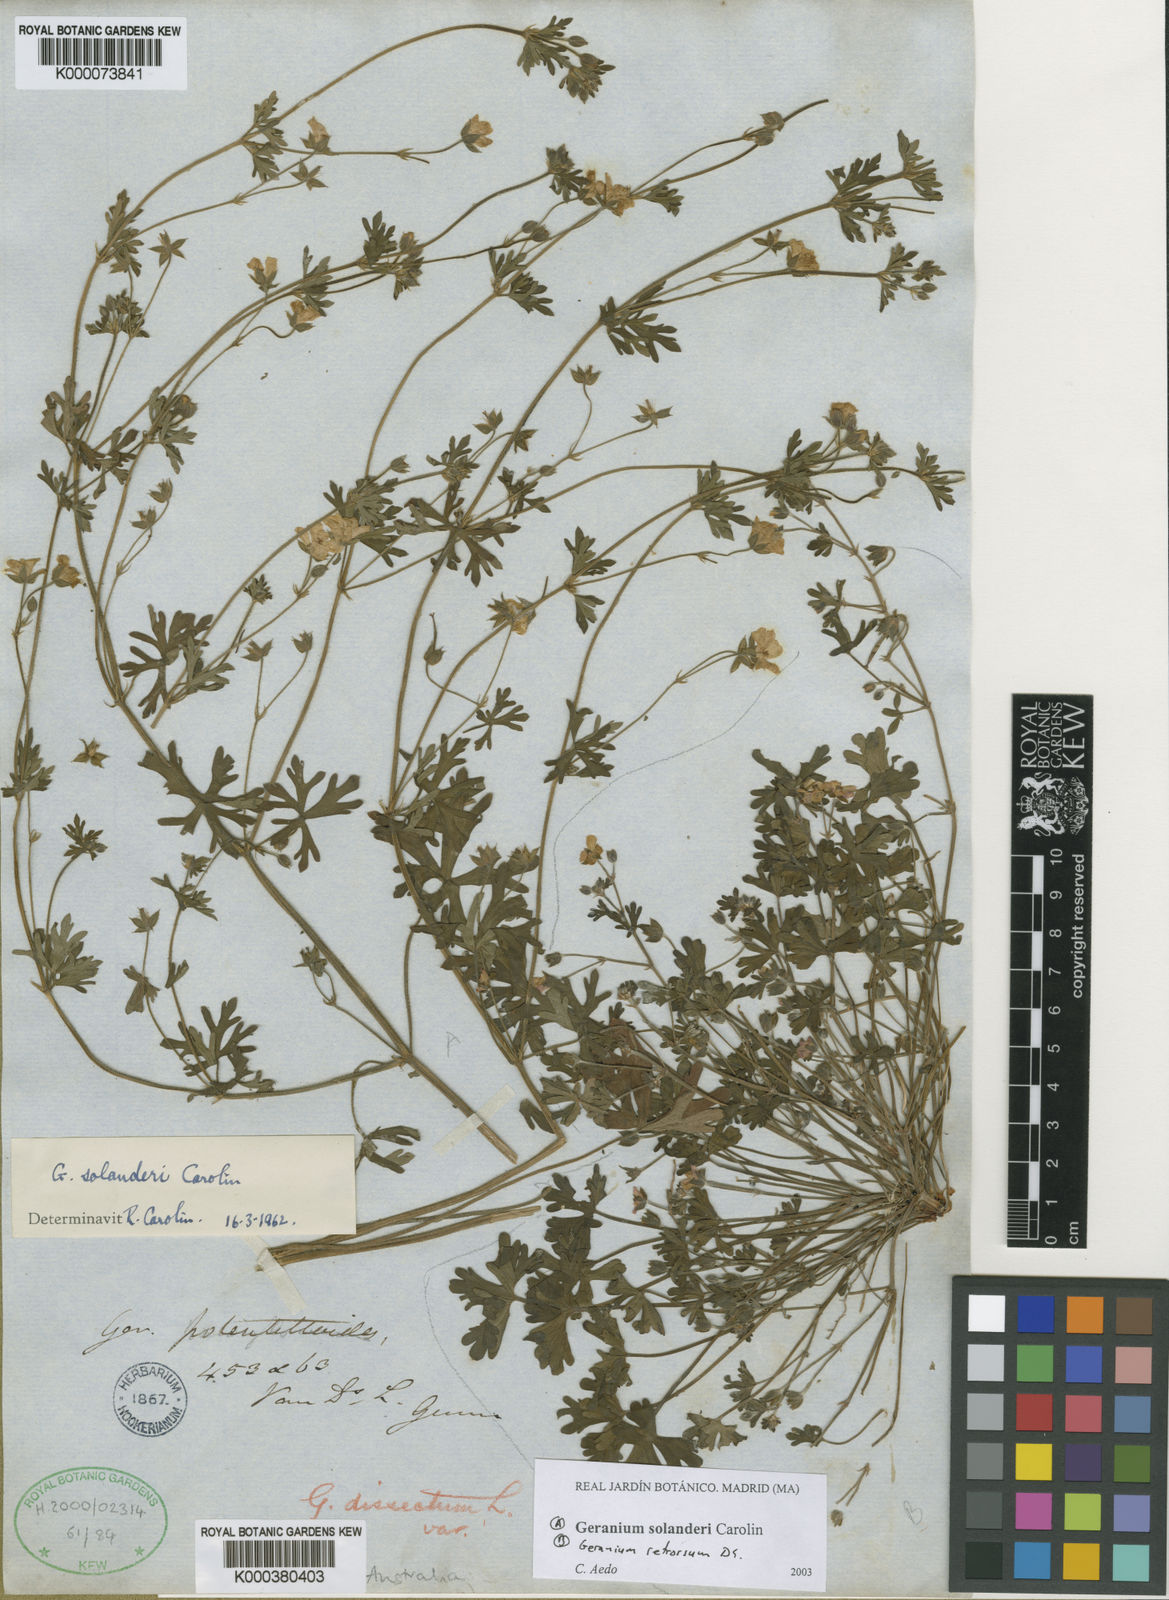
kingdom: Plantae
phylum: Tracheophyta
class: Magnoliopsida
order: Geraniales
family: Geraniaceae
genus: Geranium
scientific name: Geranium solanderi
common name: Solander's geranium
